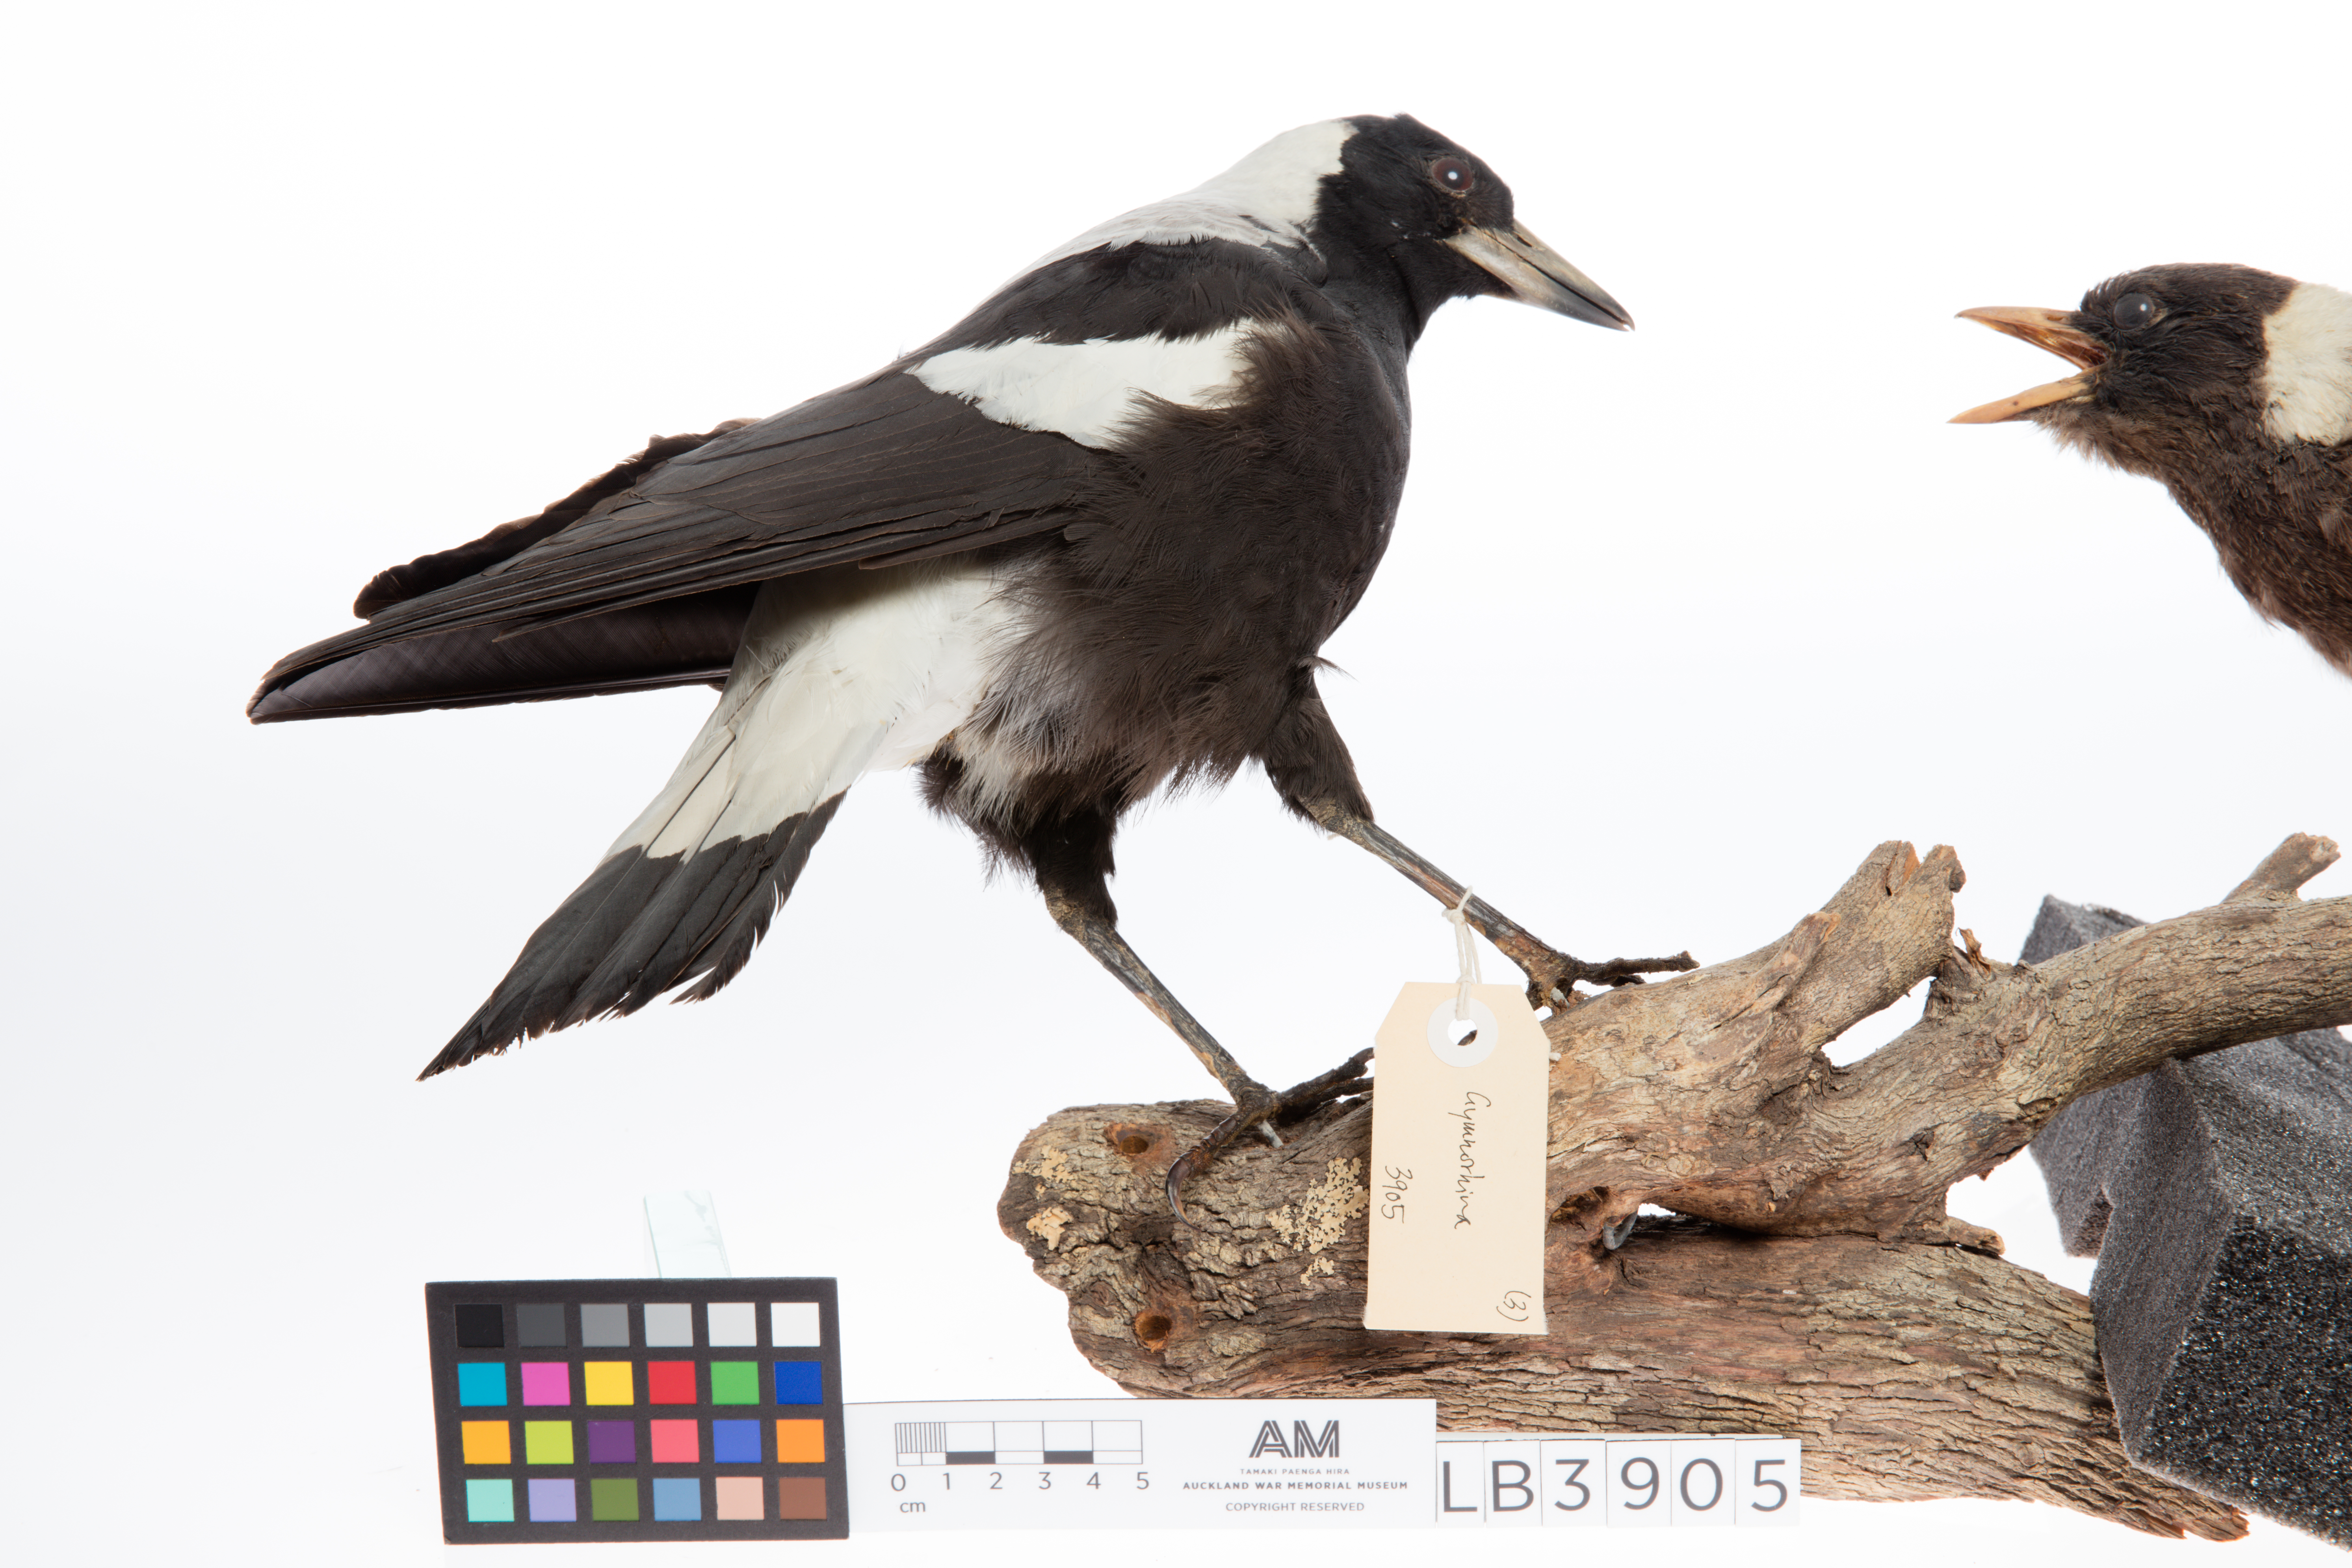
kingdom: Animalia
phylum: Chordata
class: Aves
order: Passeriformes
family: Cracticidae
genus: Gymnorhina
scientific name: Gymnorhina tibicen
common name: Australian magpie
